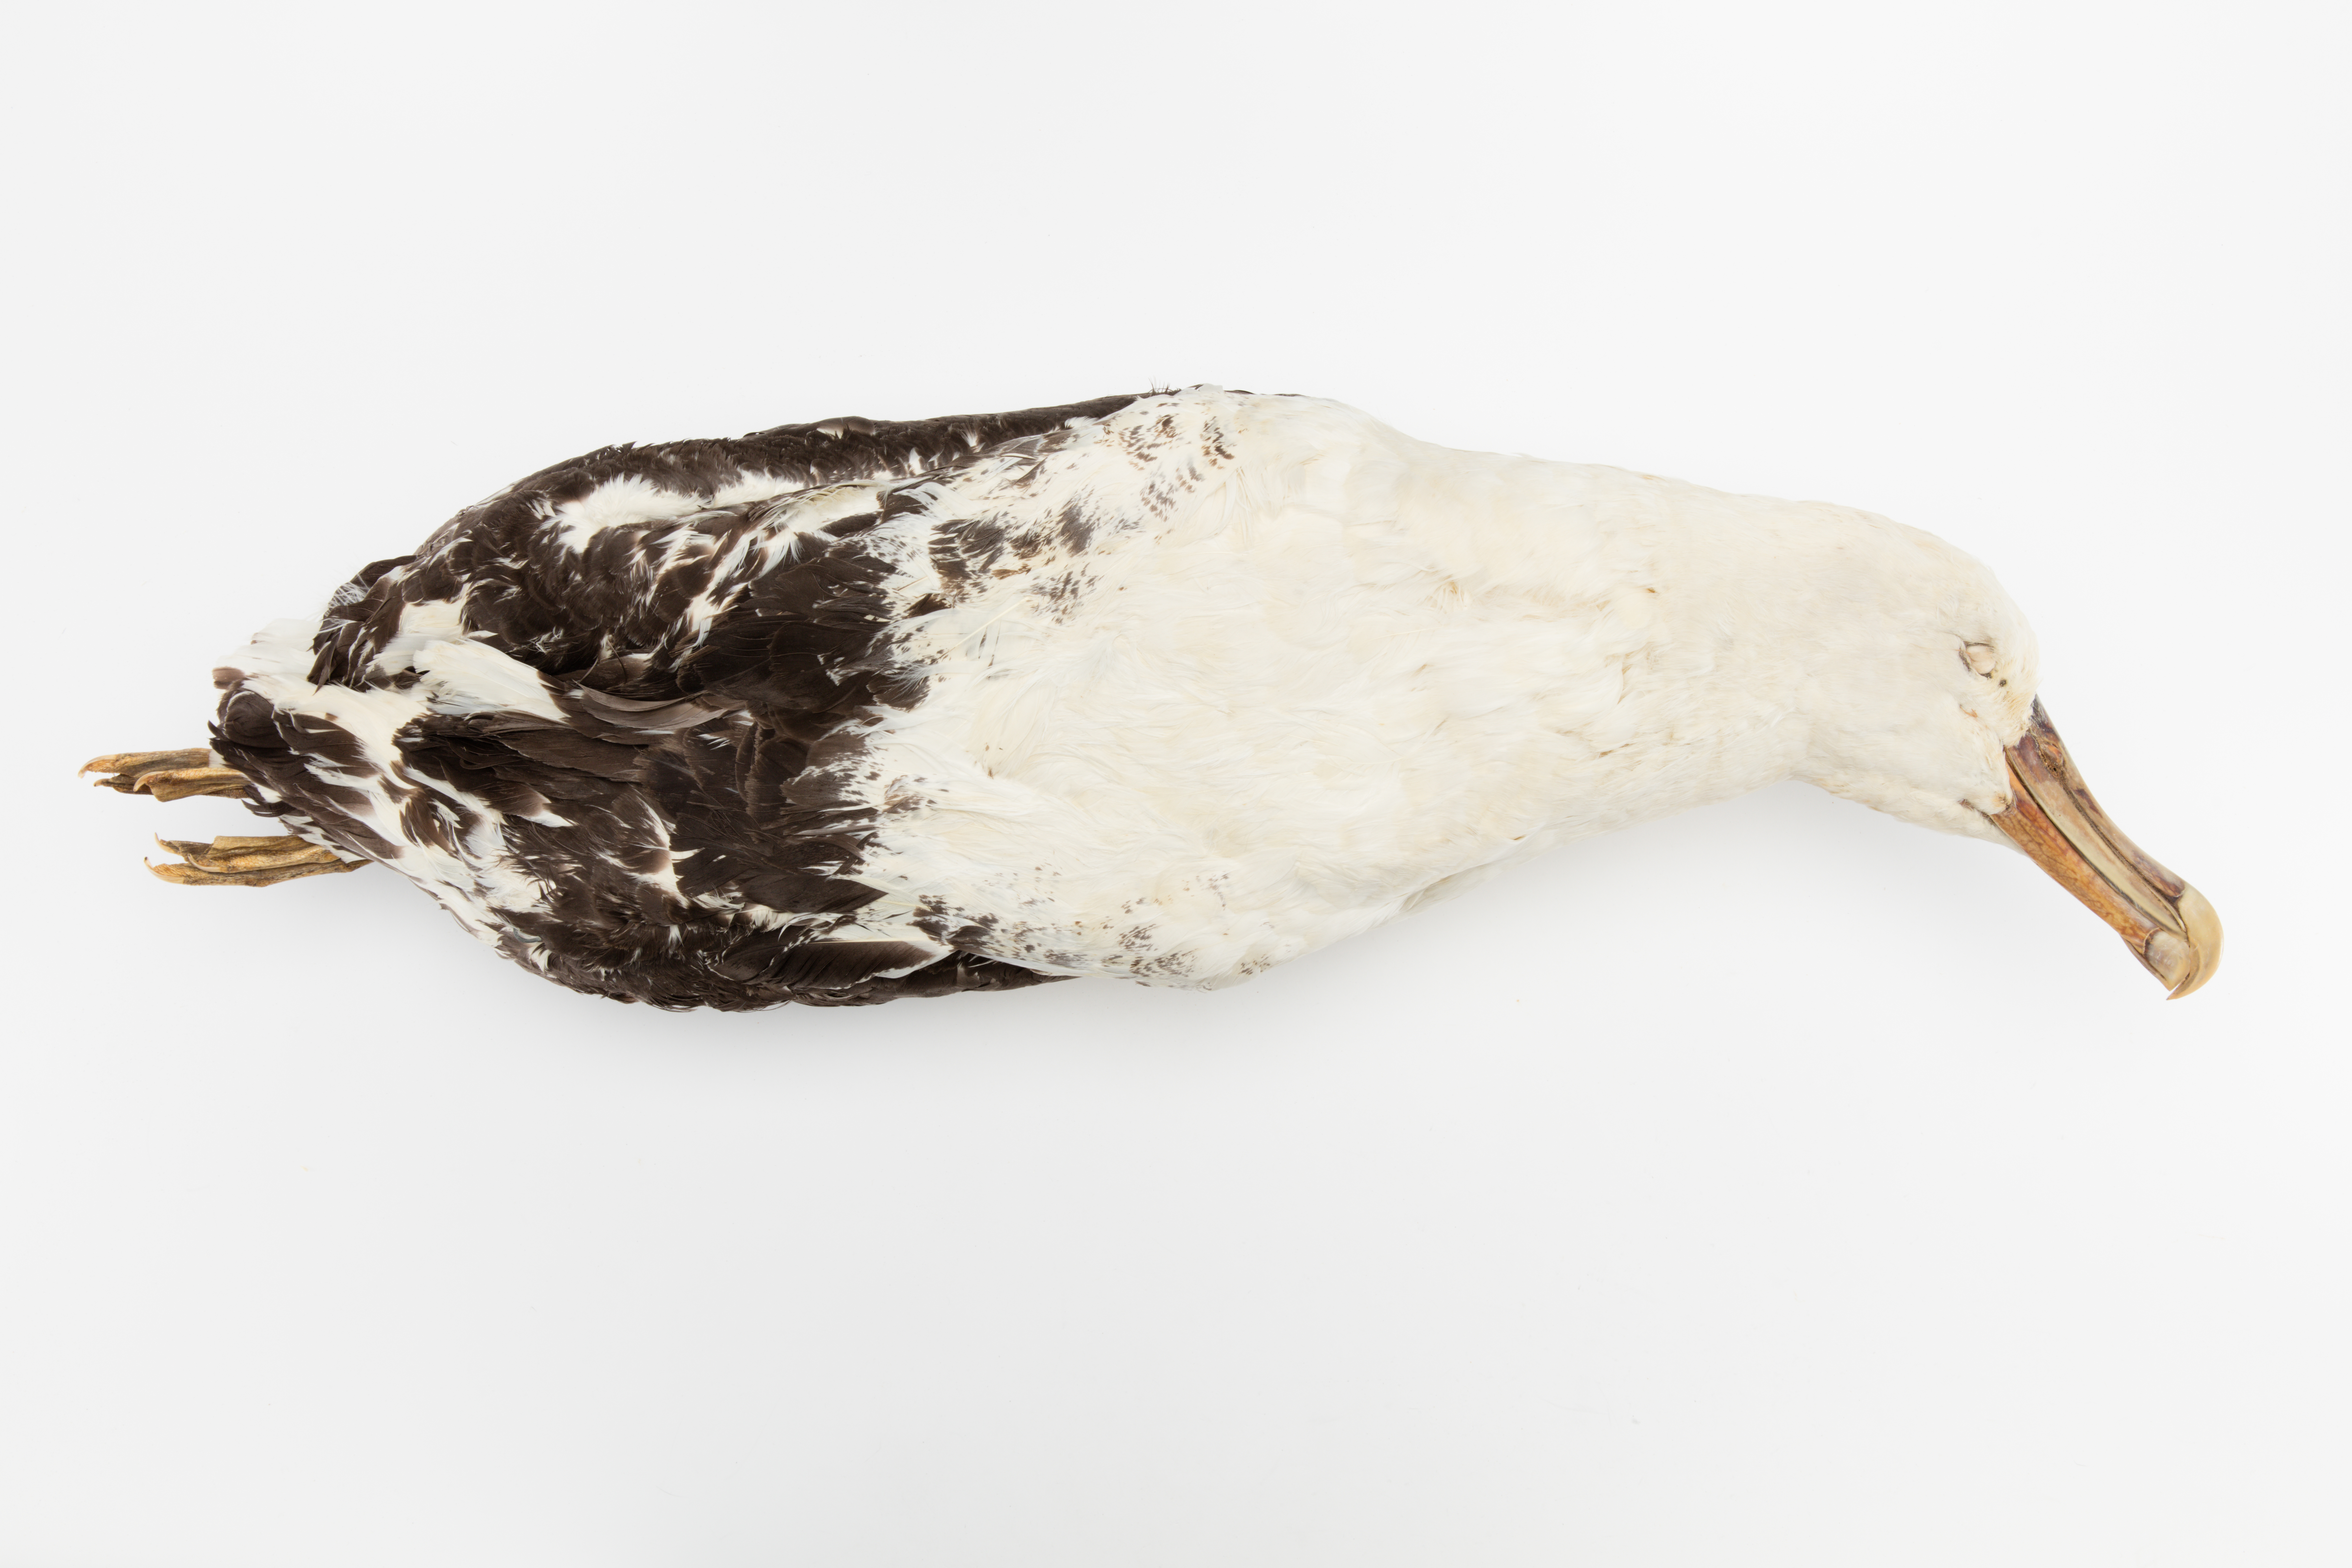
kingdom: Animalia
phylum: Chordata
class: Aves
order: Procellariiformes
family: Diomedeidae
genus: Diomedea
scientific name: Diomedea
